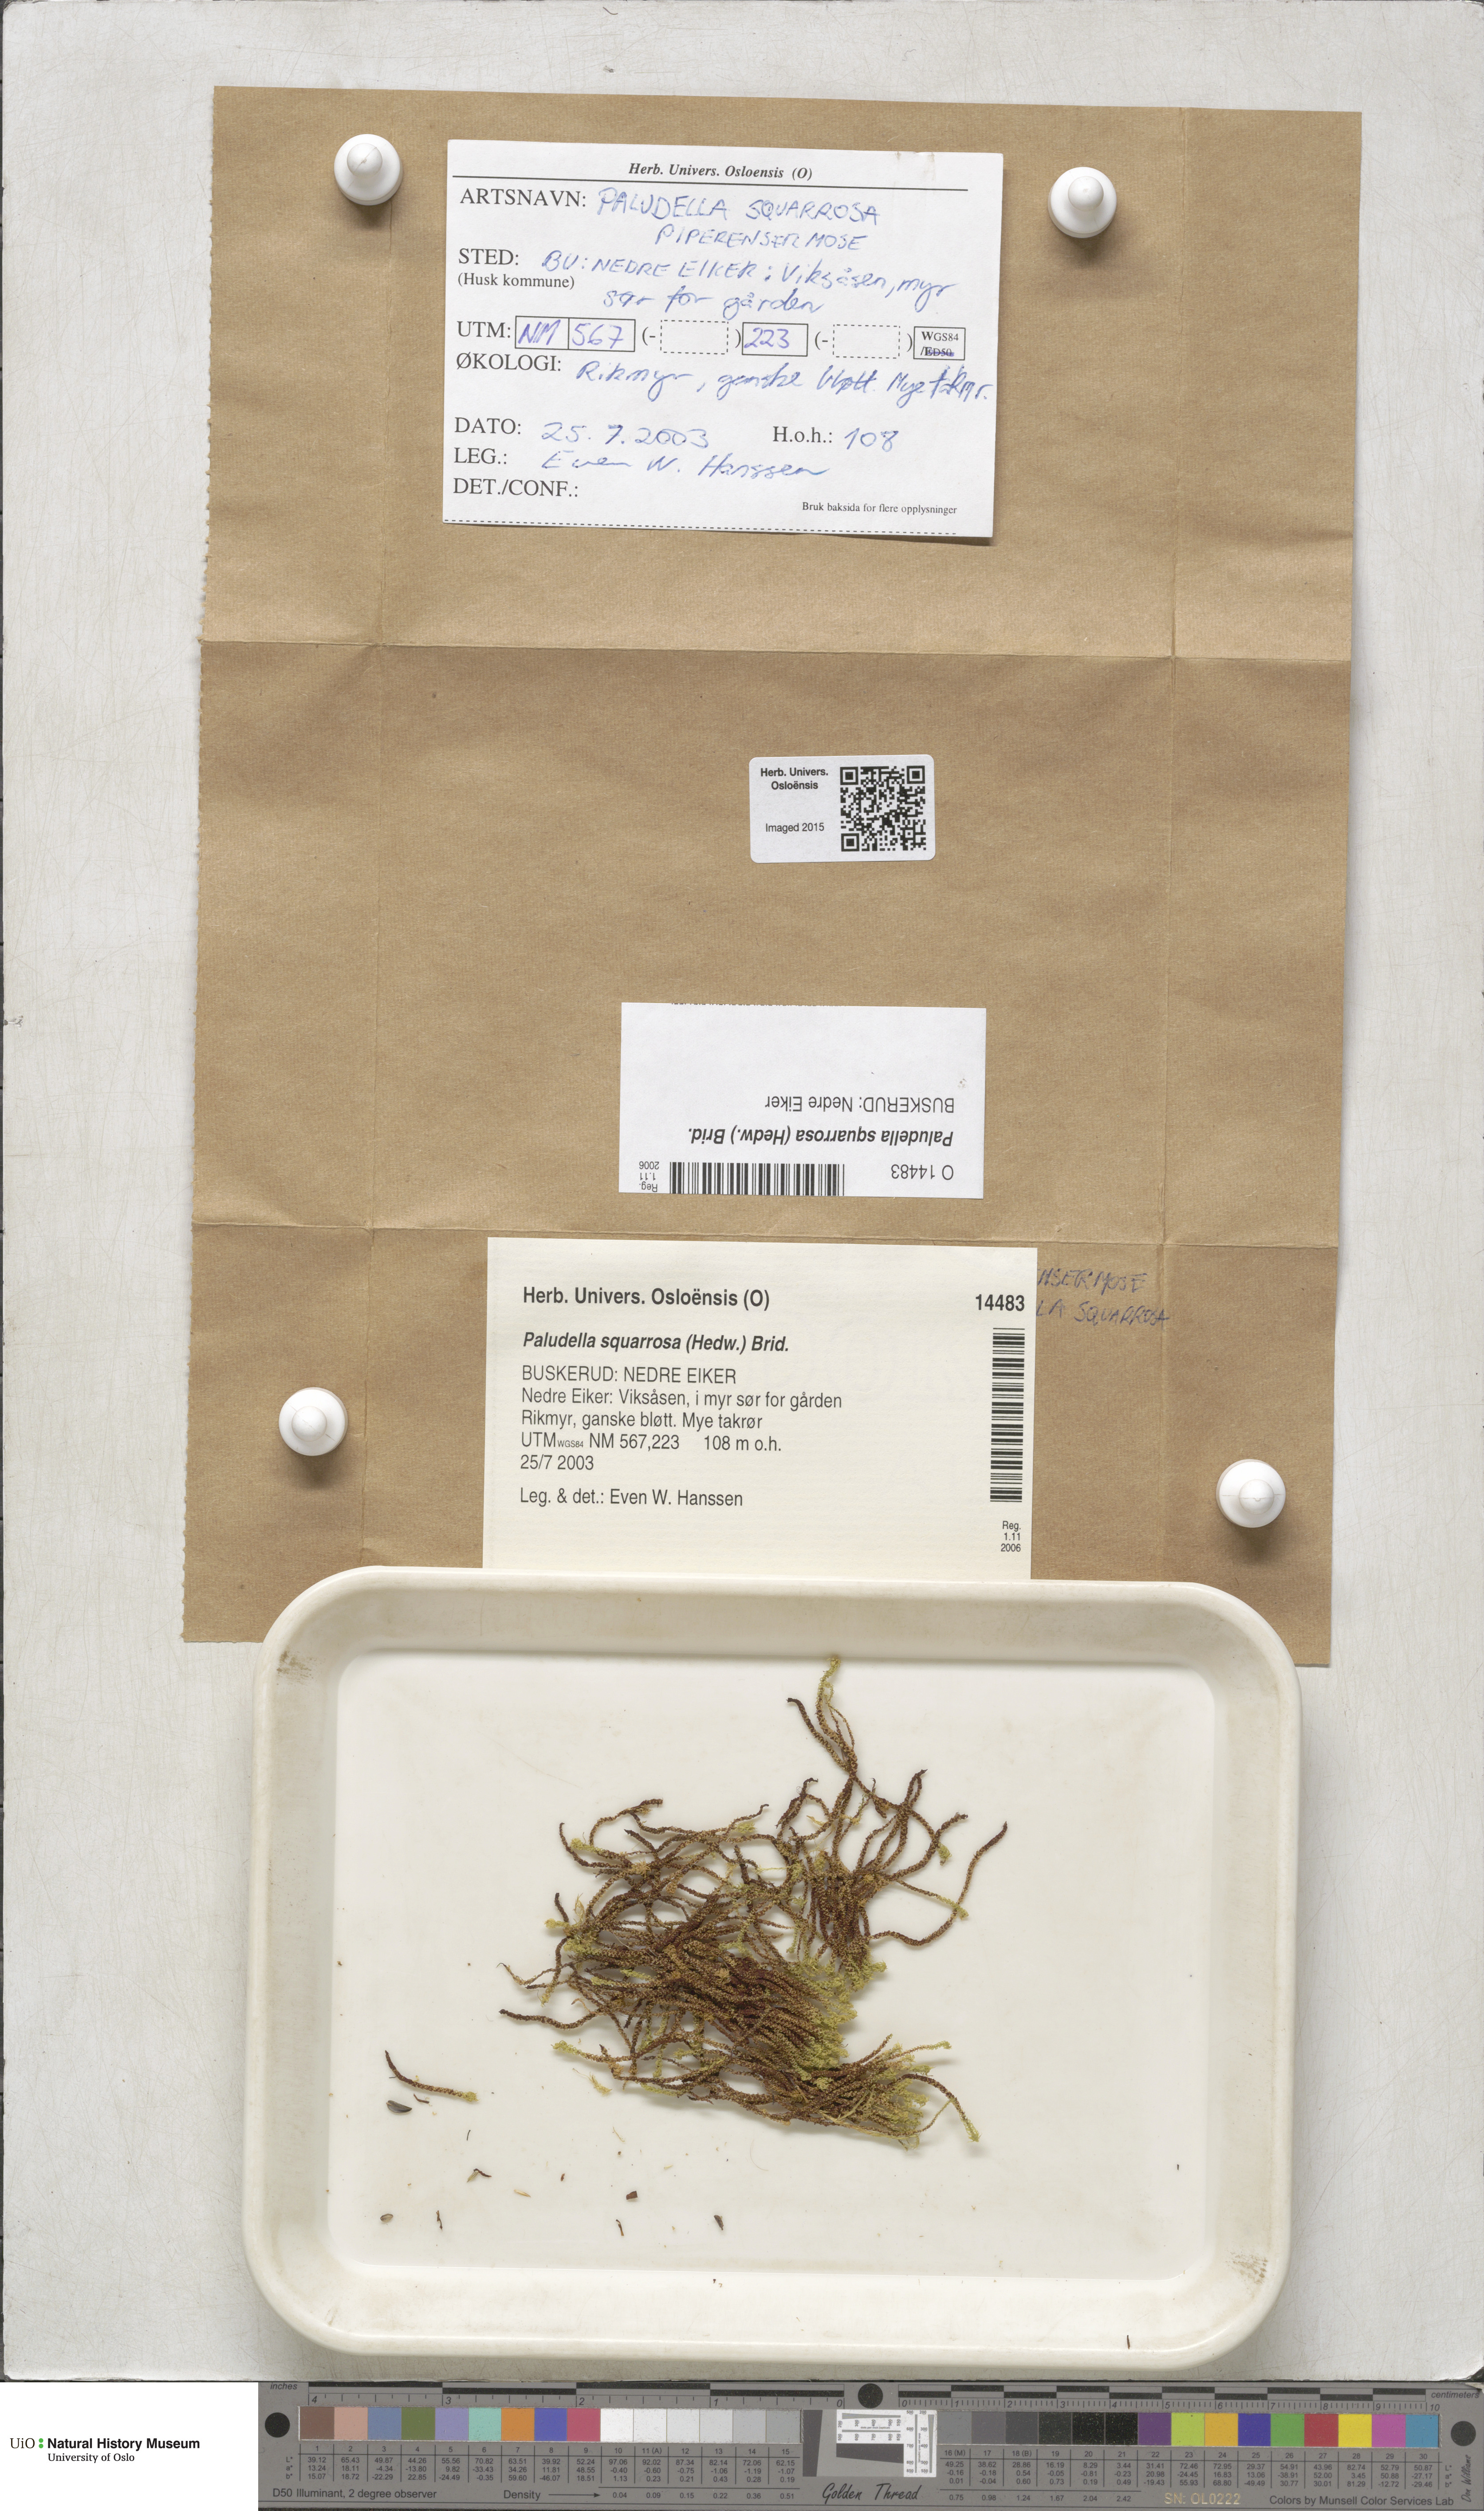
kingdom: Plantae
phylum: Bryophyta
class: Bryopsida
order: Splachnales
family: Meesiaceae
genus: Paludella
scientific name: Paludella squarrosa
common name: Tufted fen moss
